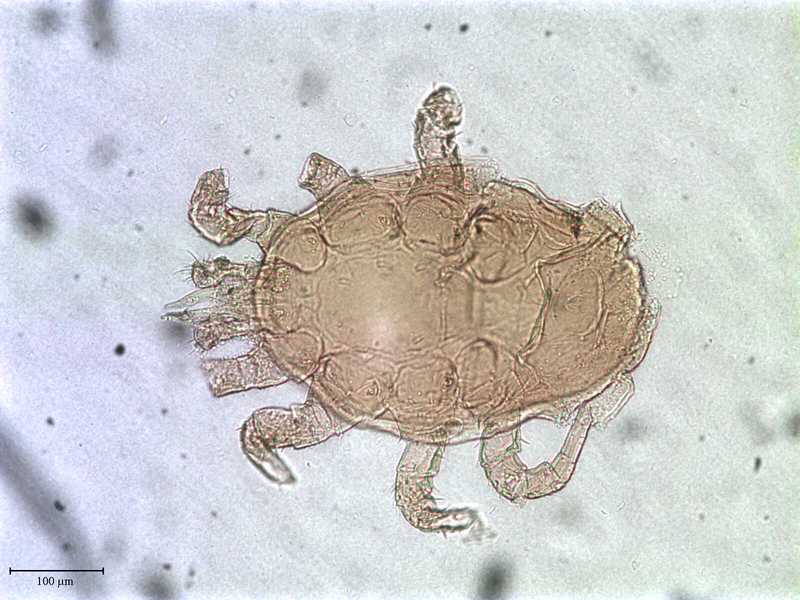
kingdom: Animalia
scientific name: Animalia
